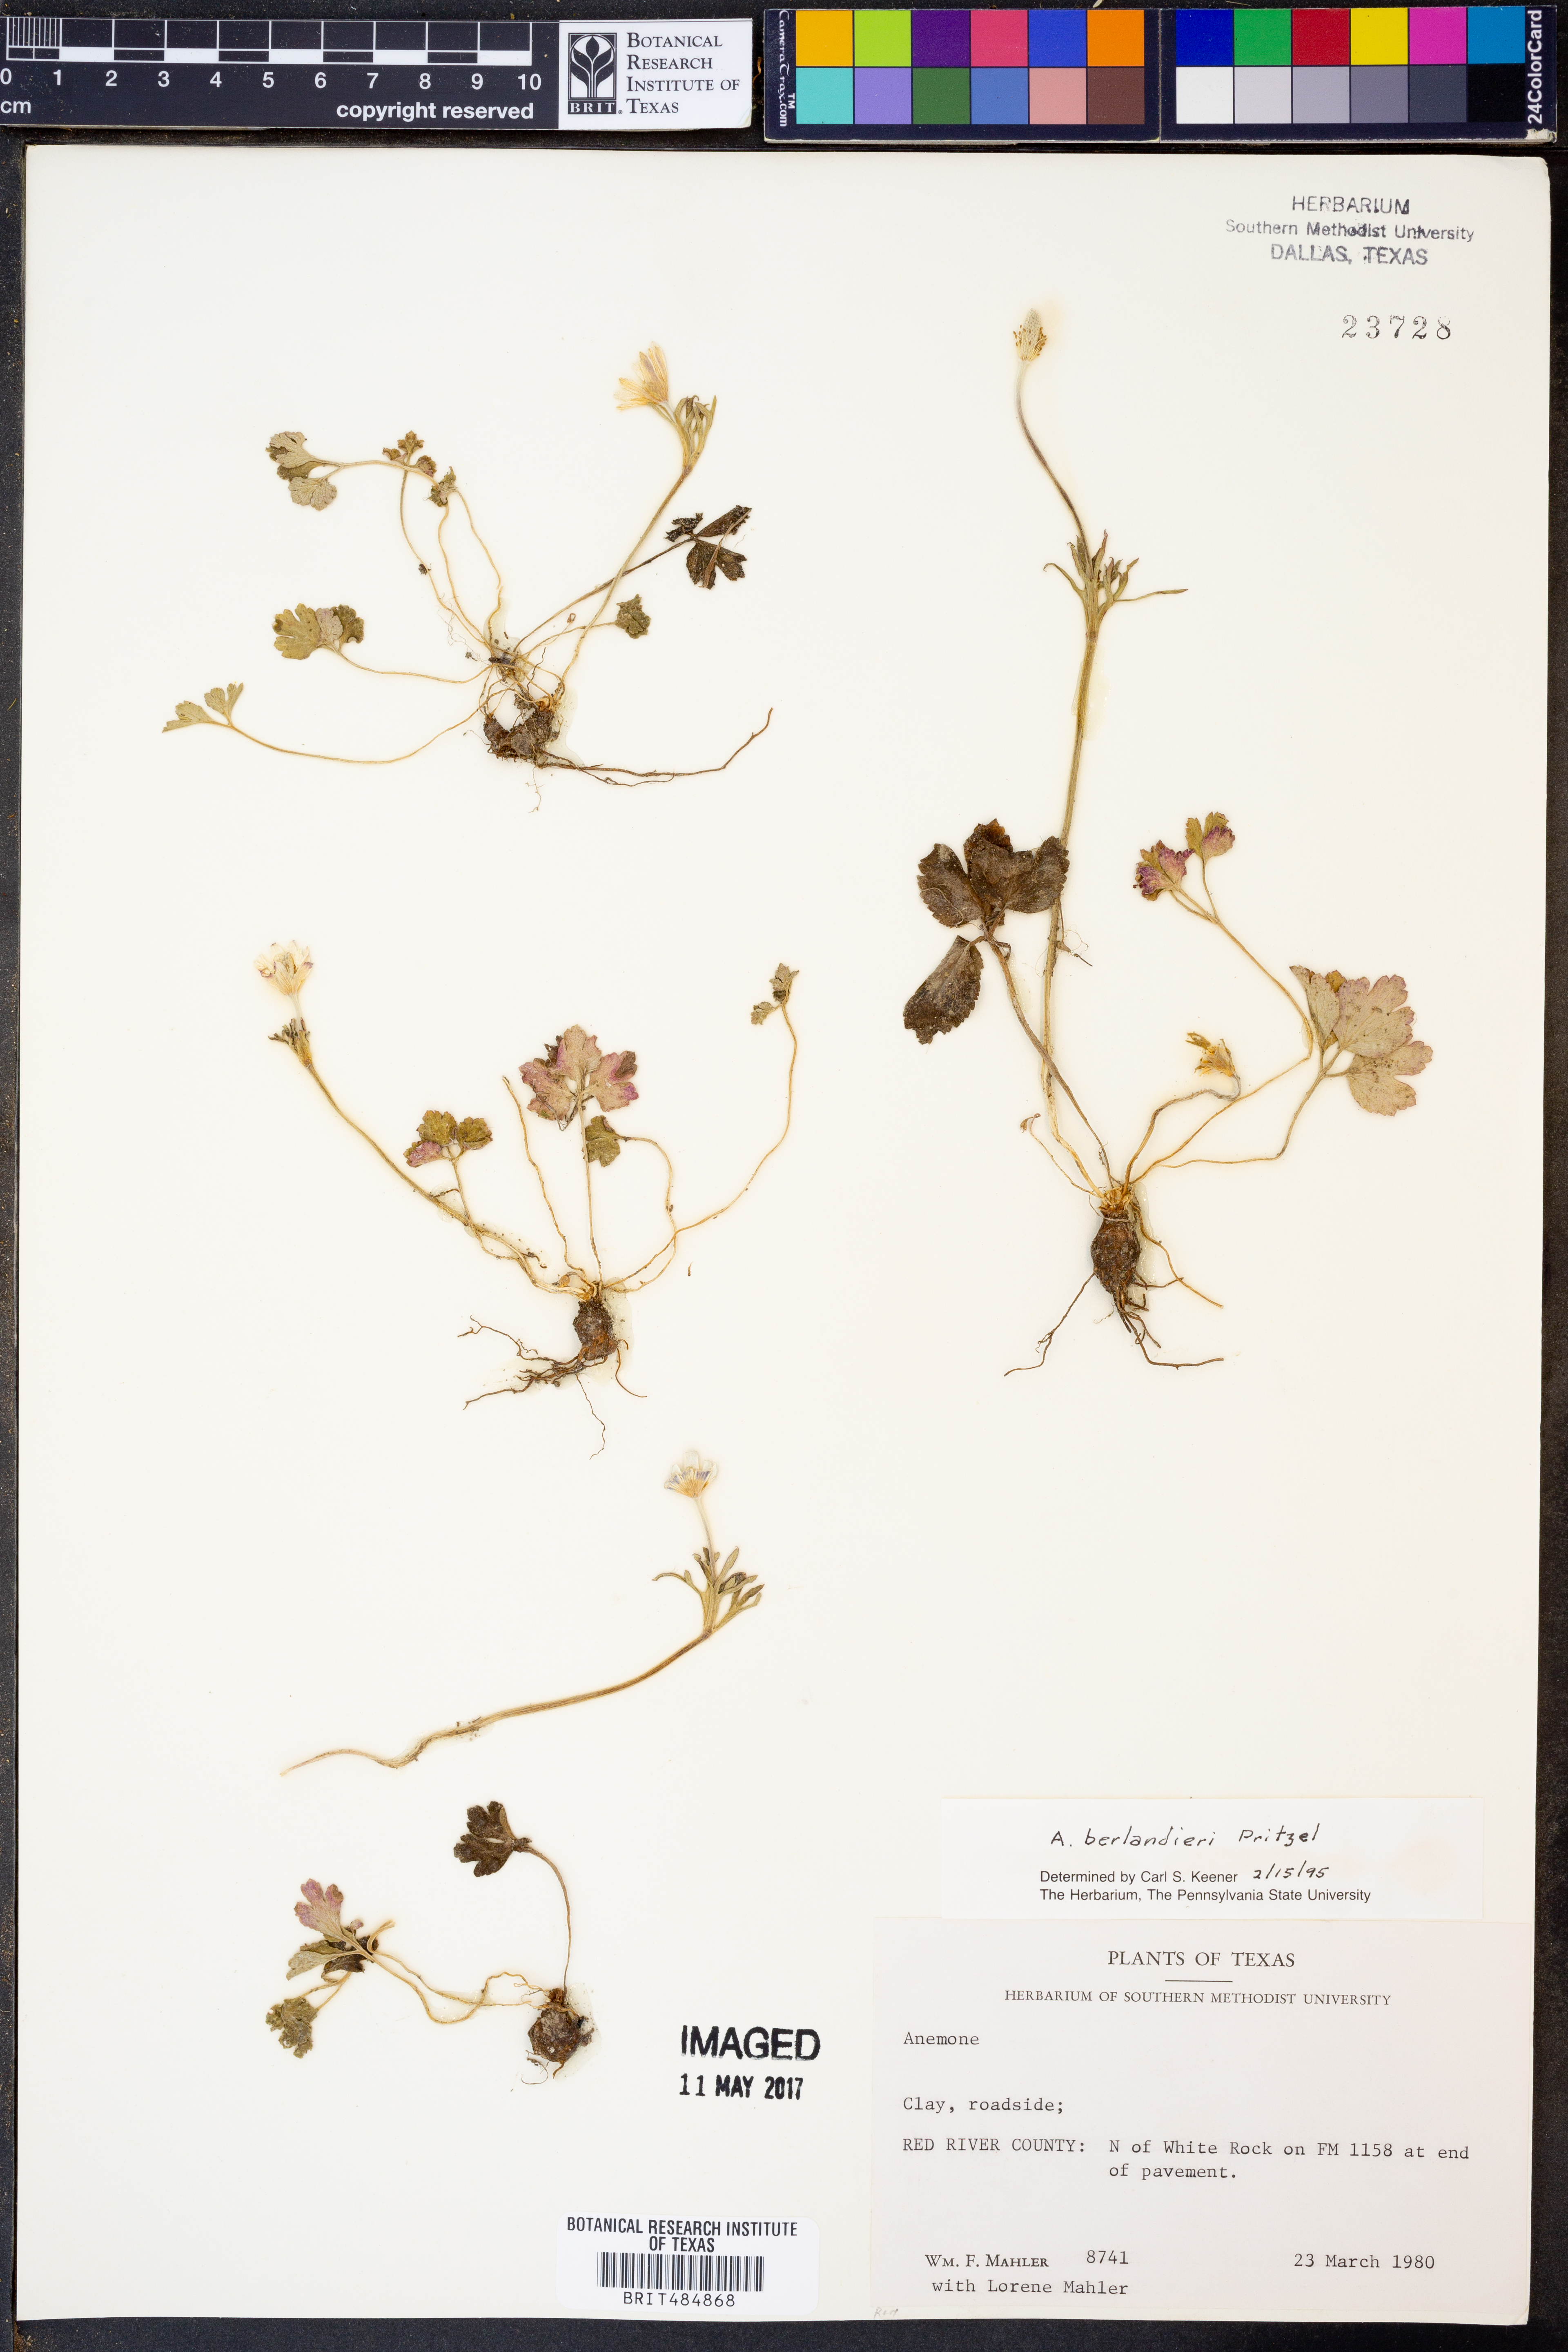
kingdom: Plantae
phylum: Tracheophyta
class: Magnoliopsida
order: Ranunculales
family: Ranunculaceae
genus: Anemone
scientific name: Anemone berlandieri
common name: Ten-petal anemone
